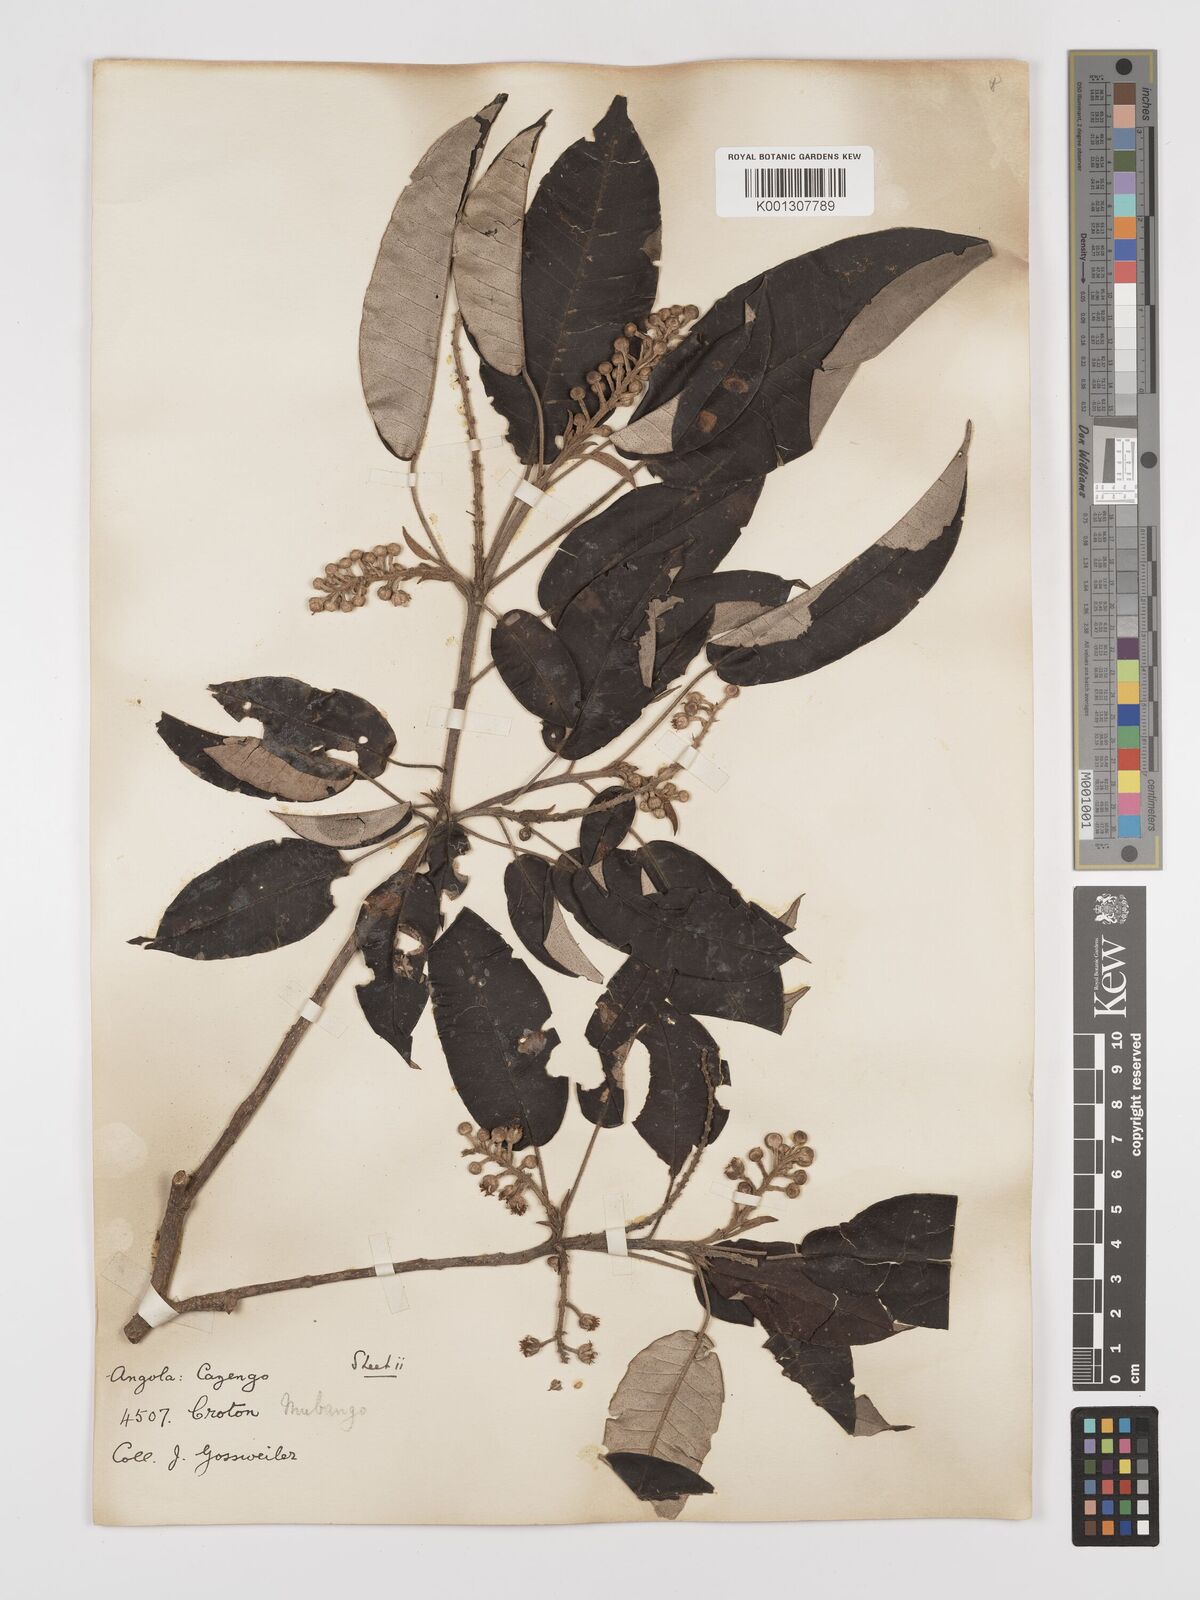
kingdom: Plantae
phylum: Tracheophyta
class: Magnoliopsida
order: Malpighiales
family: Euphorbiaceae
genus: Croton
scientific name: Croton mubango
